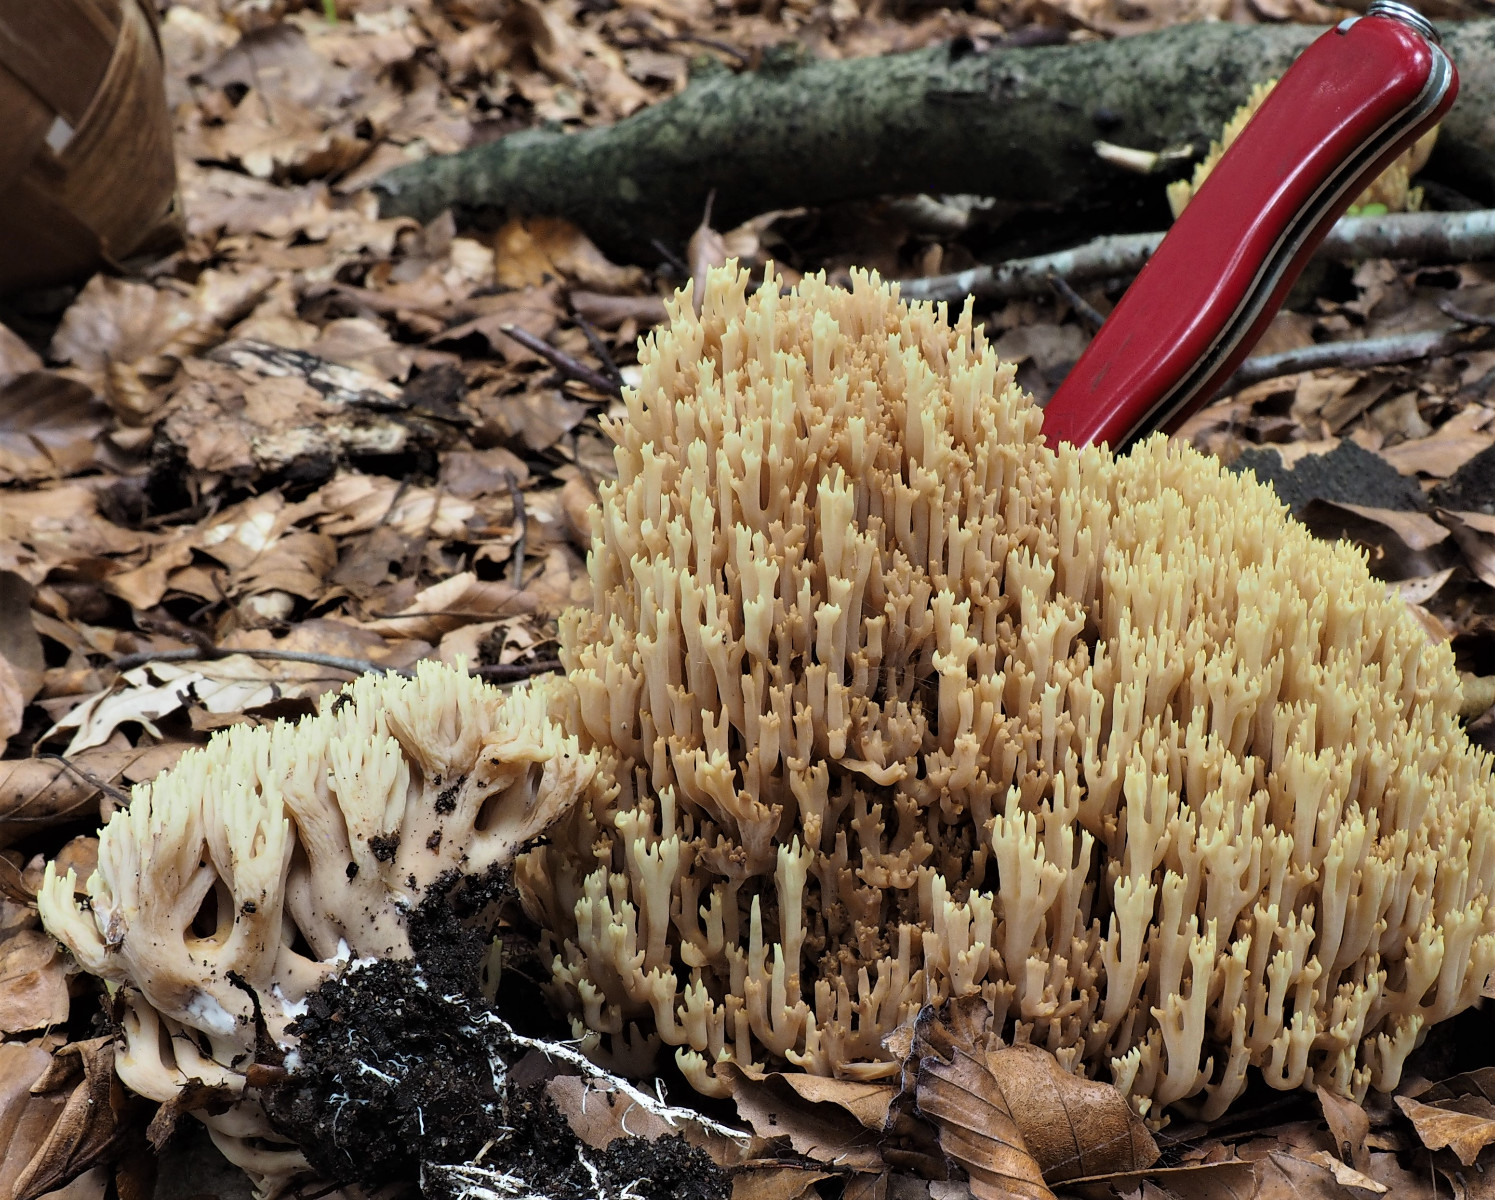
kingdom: Fungi
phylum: Basidiomycota
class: Agaricomycetes
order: Gomphales
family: Gomphaceae
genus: Ramaria
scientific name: Ramaria stricta
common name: rank koralsvamp
